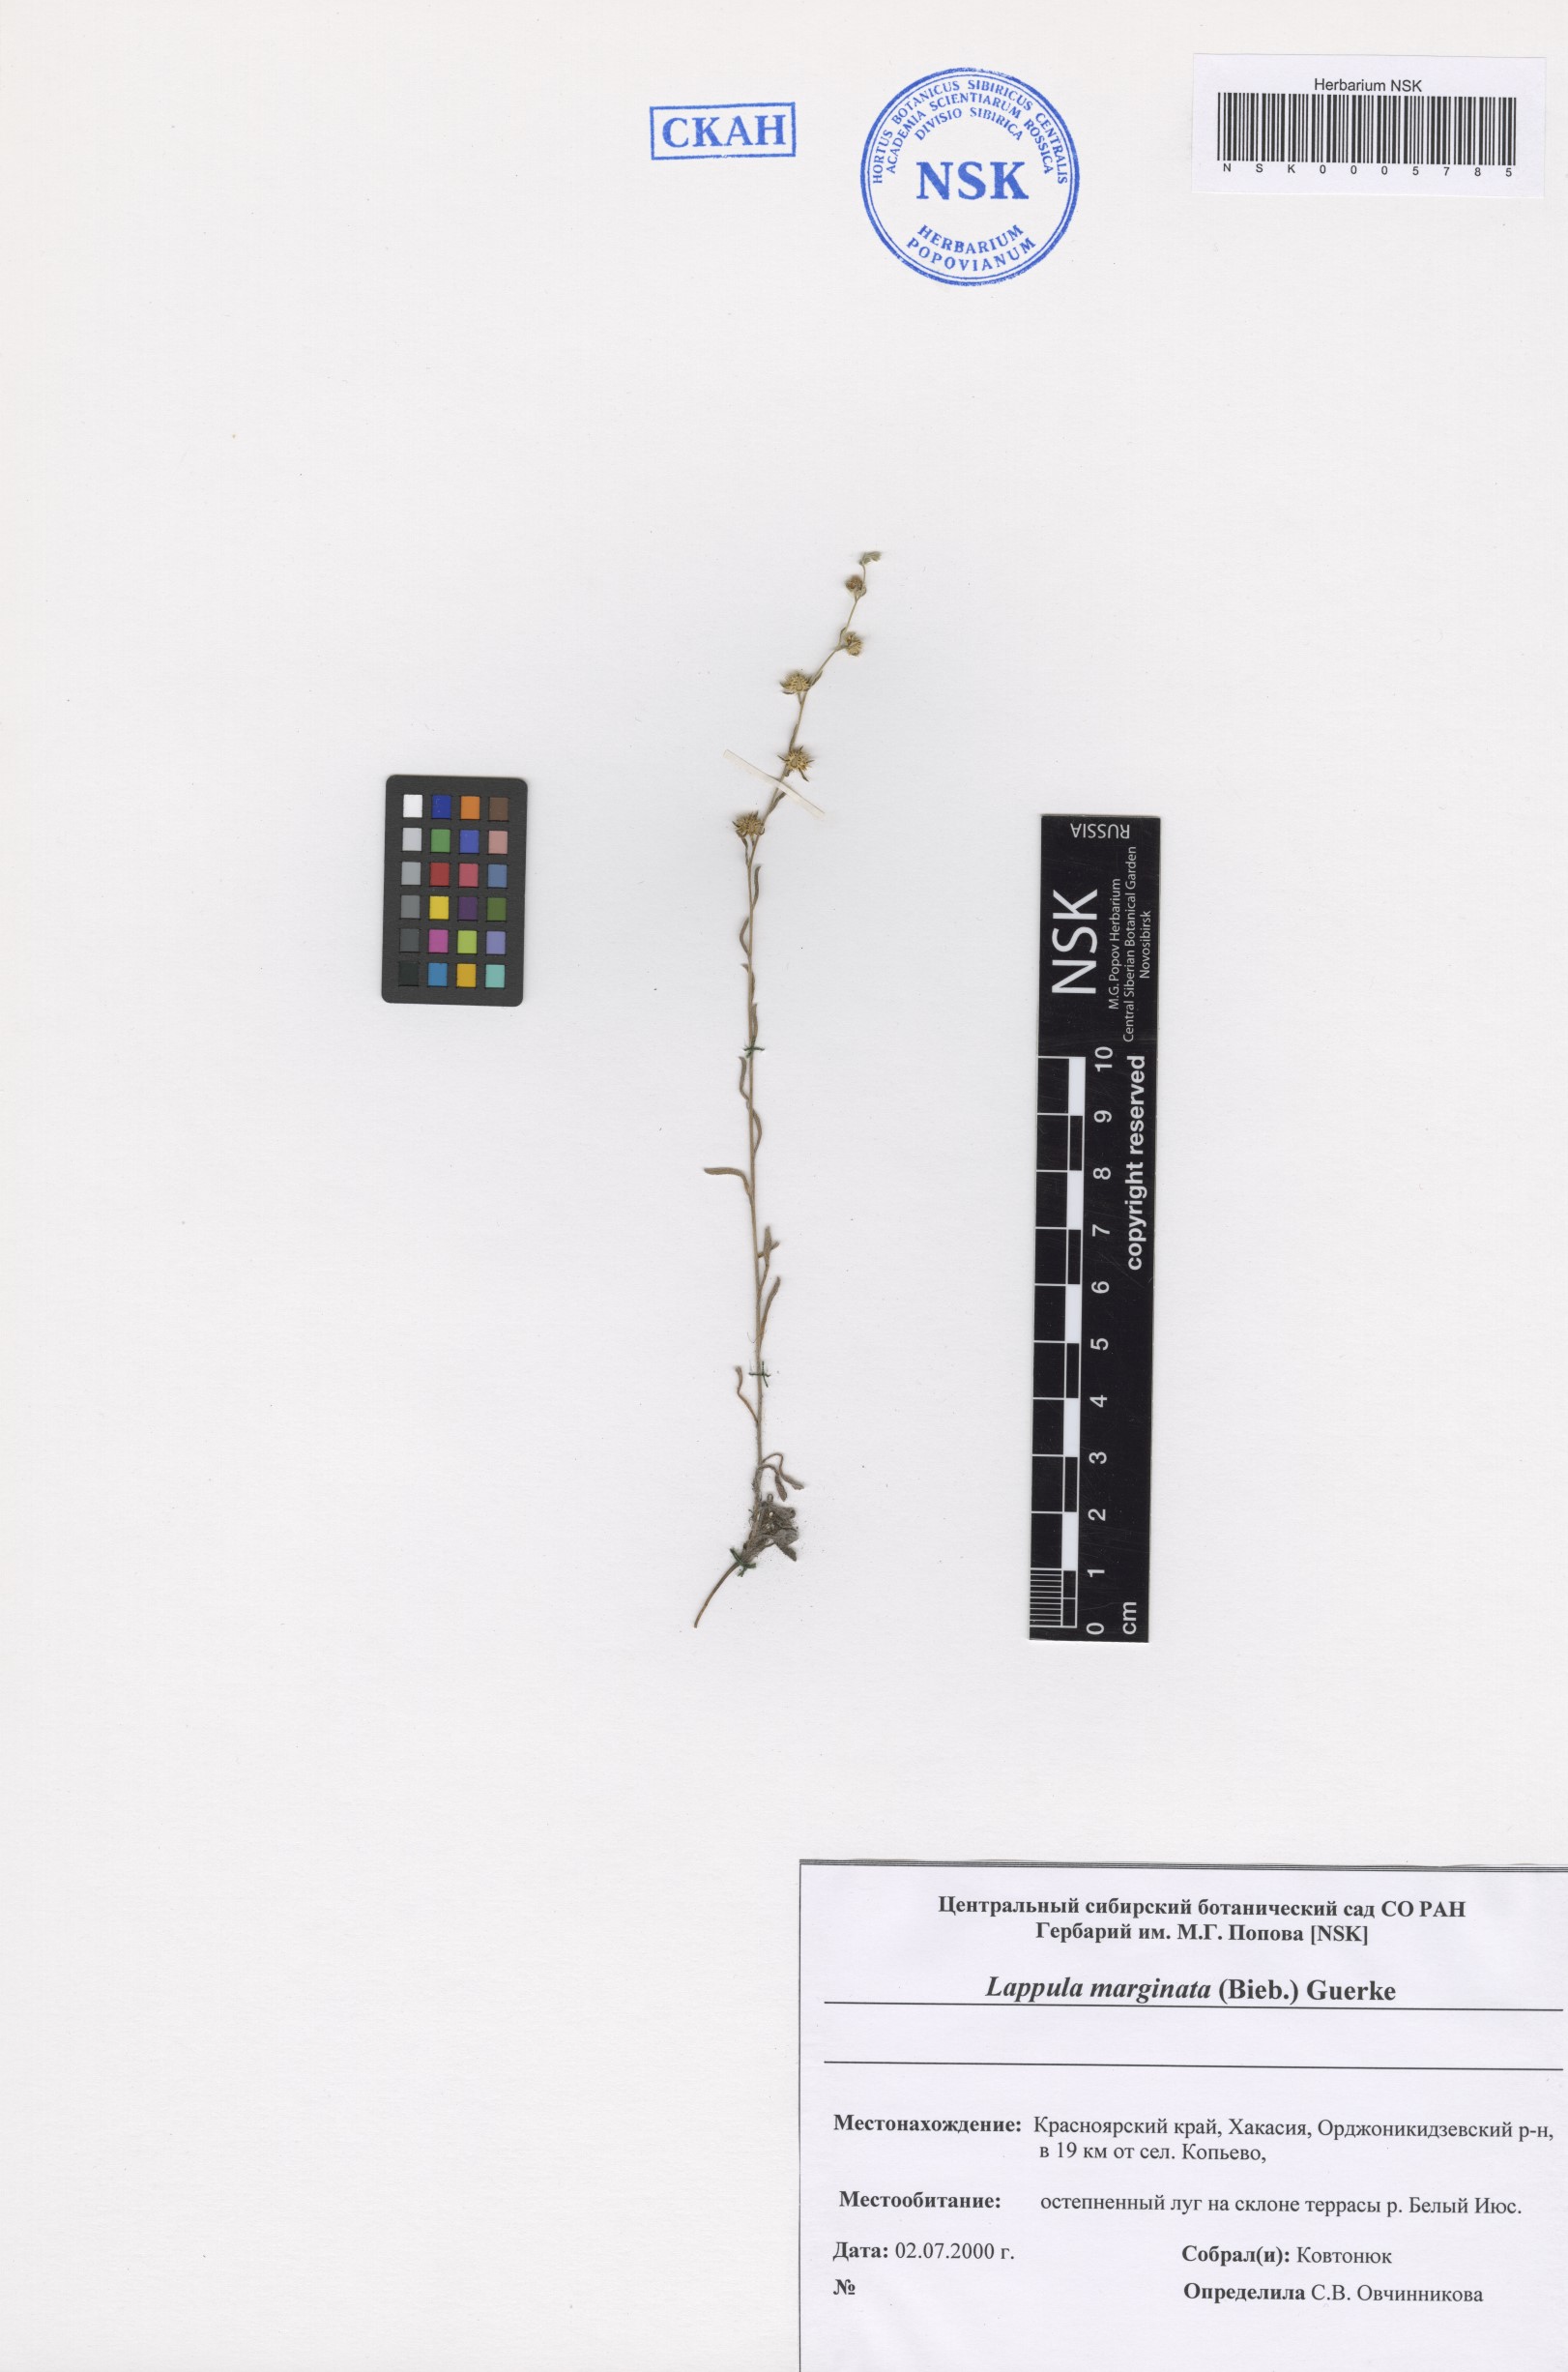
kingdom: Plantae
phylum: Tracheophyta
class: Magnoliopsida
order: Boraginales
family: Boraginaceae
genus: Lappula
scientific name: Lappula marginata
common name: Margined stickseed
